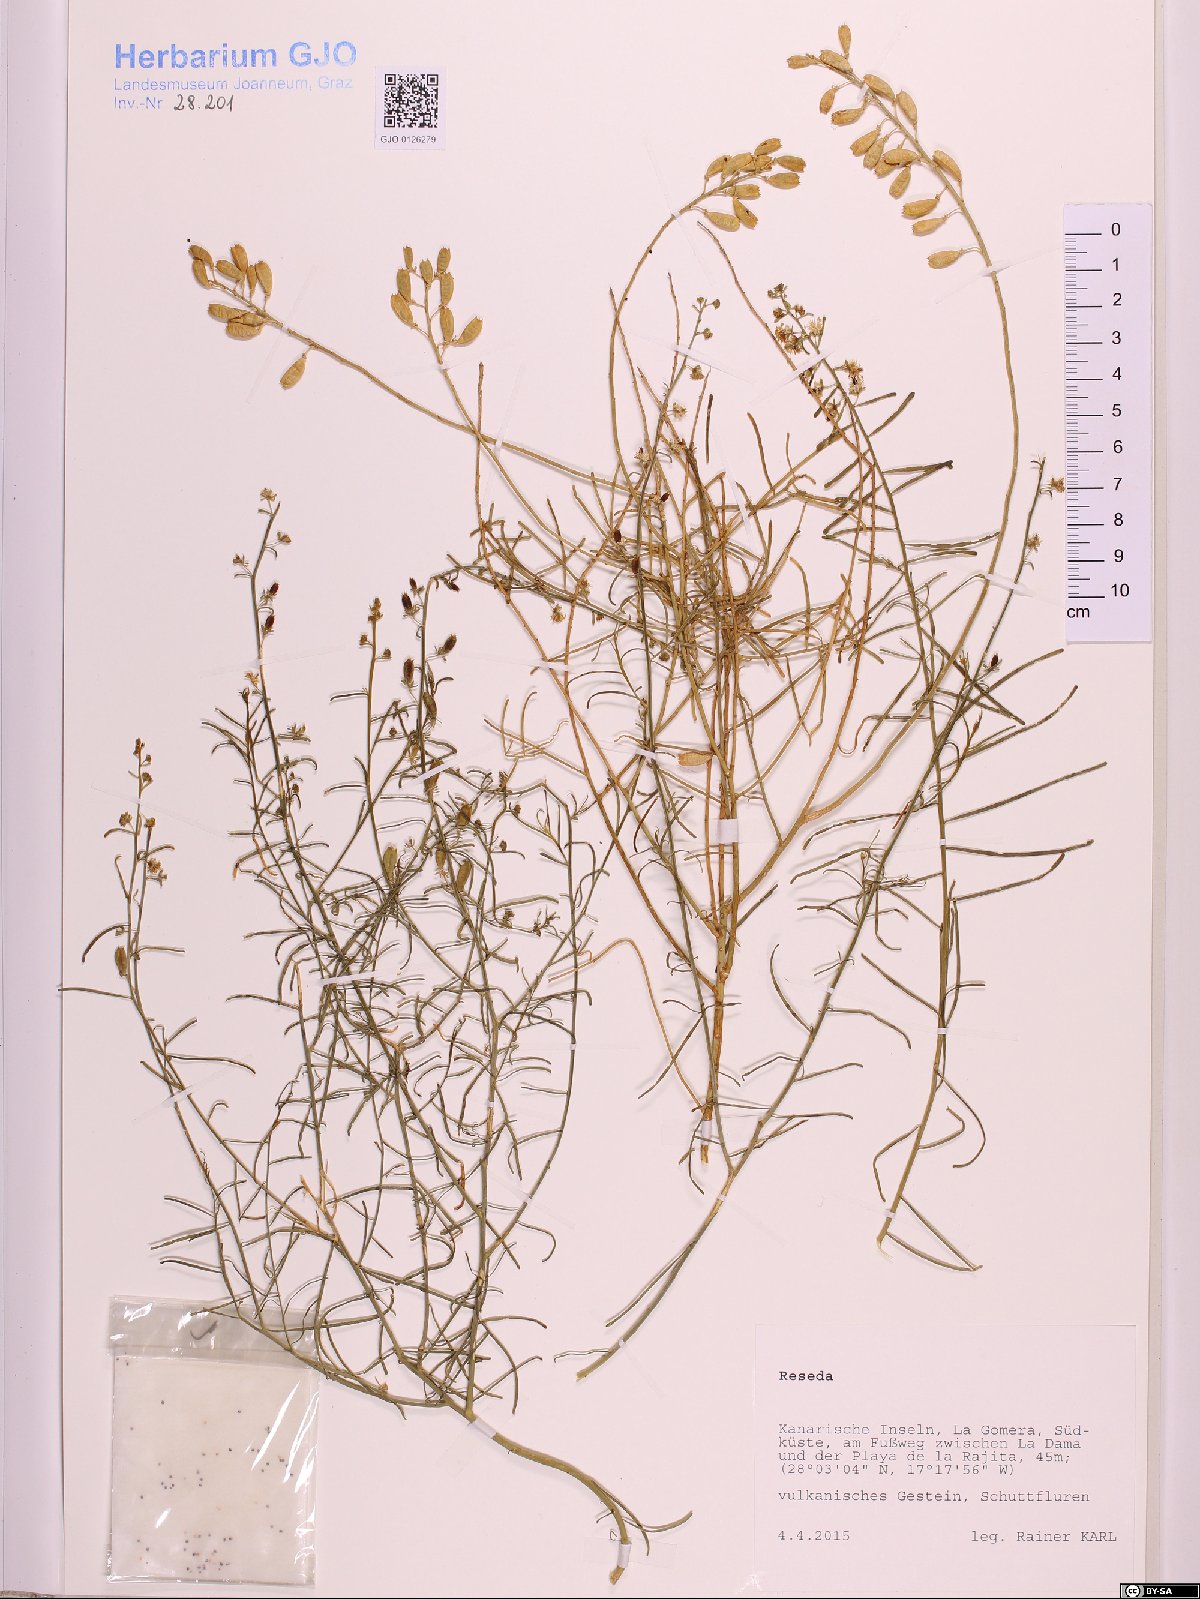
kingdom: Plantae
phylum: Tracheophyta
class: Magnoliopsida
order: Brassicales
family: Resedaceae
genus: Reseda
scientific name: Reseda
